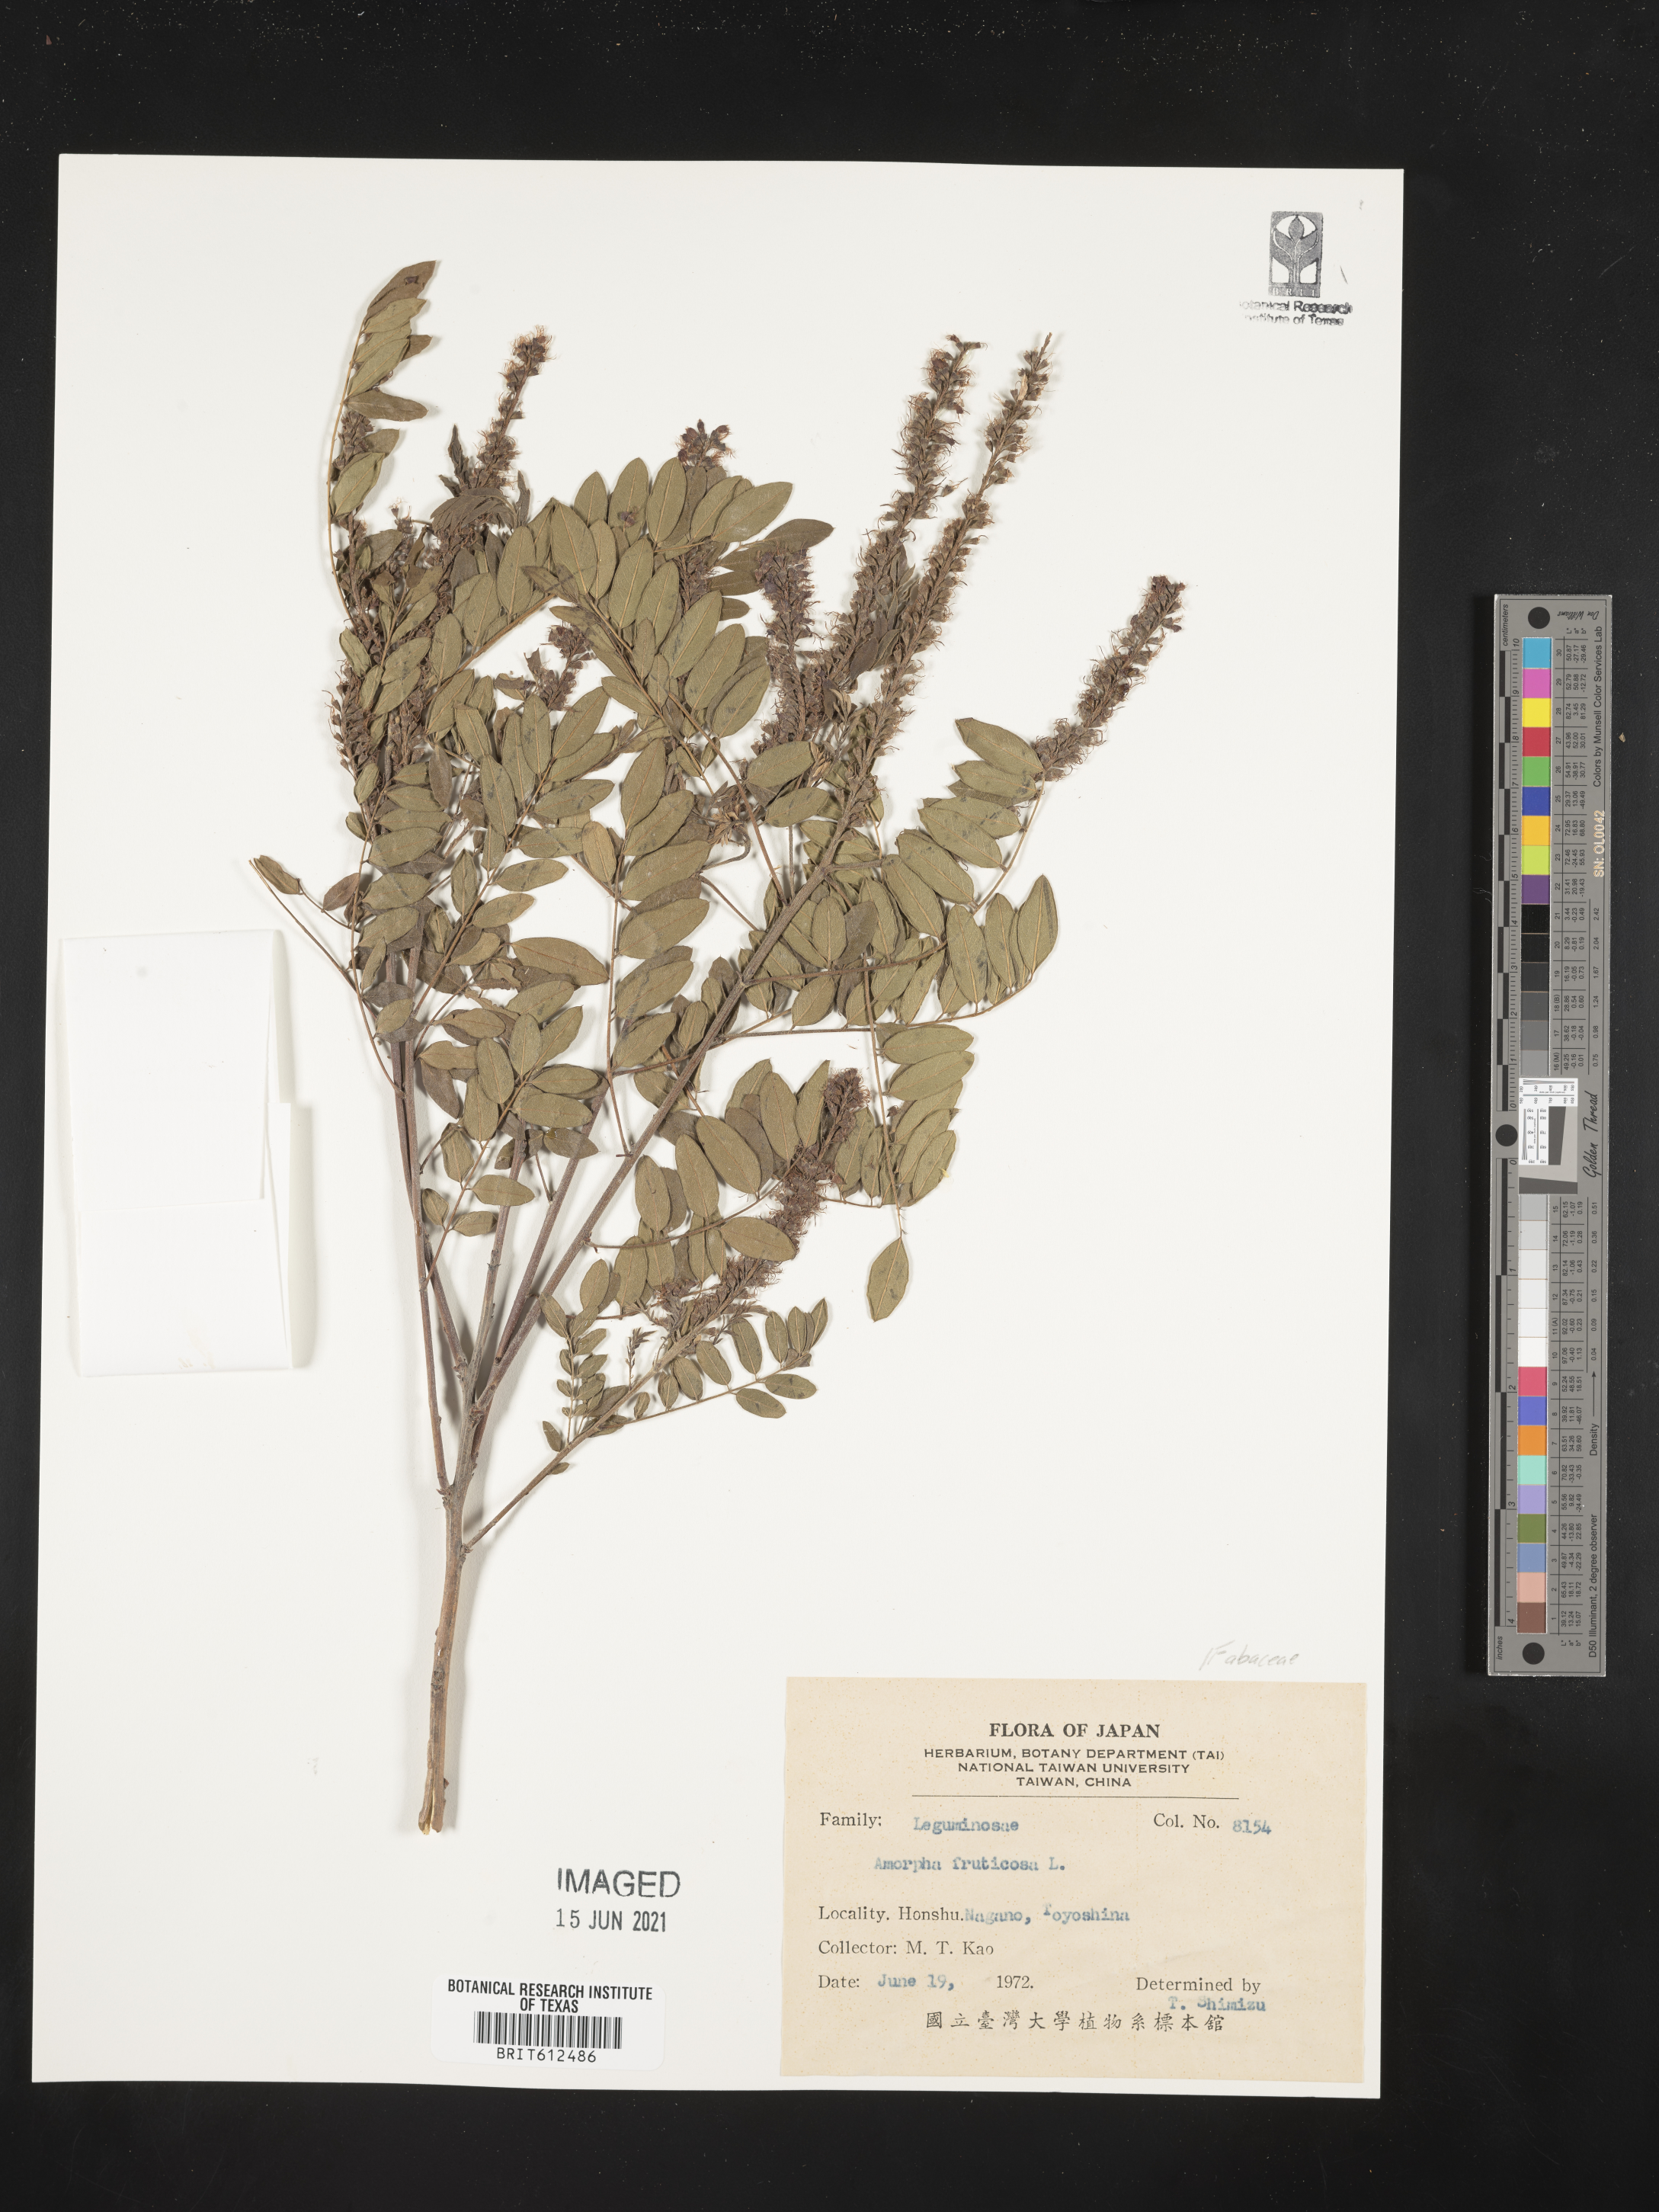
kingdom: Plantae
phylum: Tracheophyta
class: Magnoliopsida
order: Fabales
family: Fabaceae
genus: Amorpha
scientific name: Amorpha fruticosa
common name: False indigo
